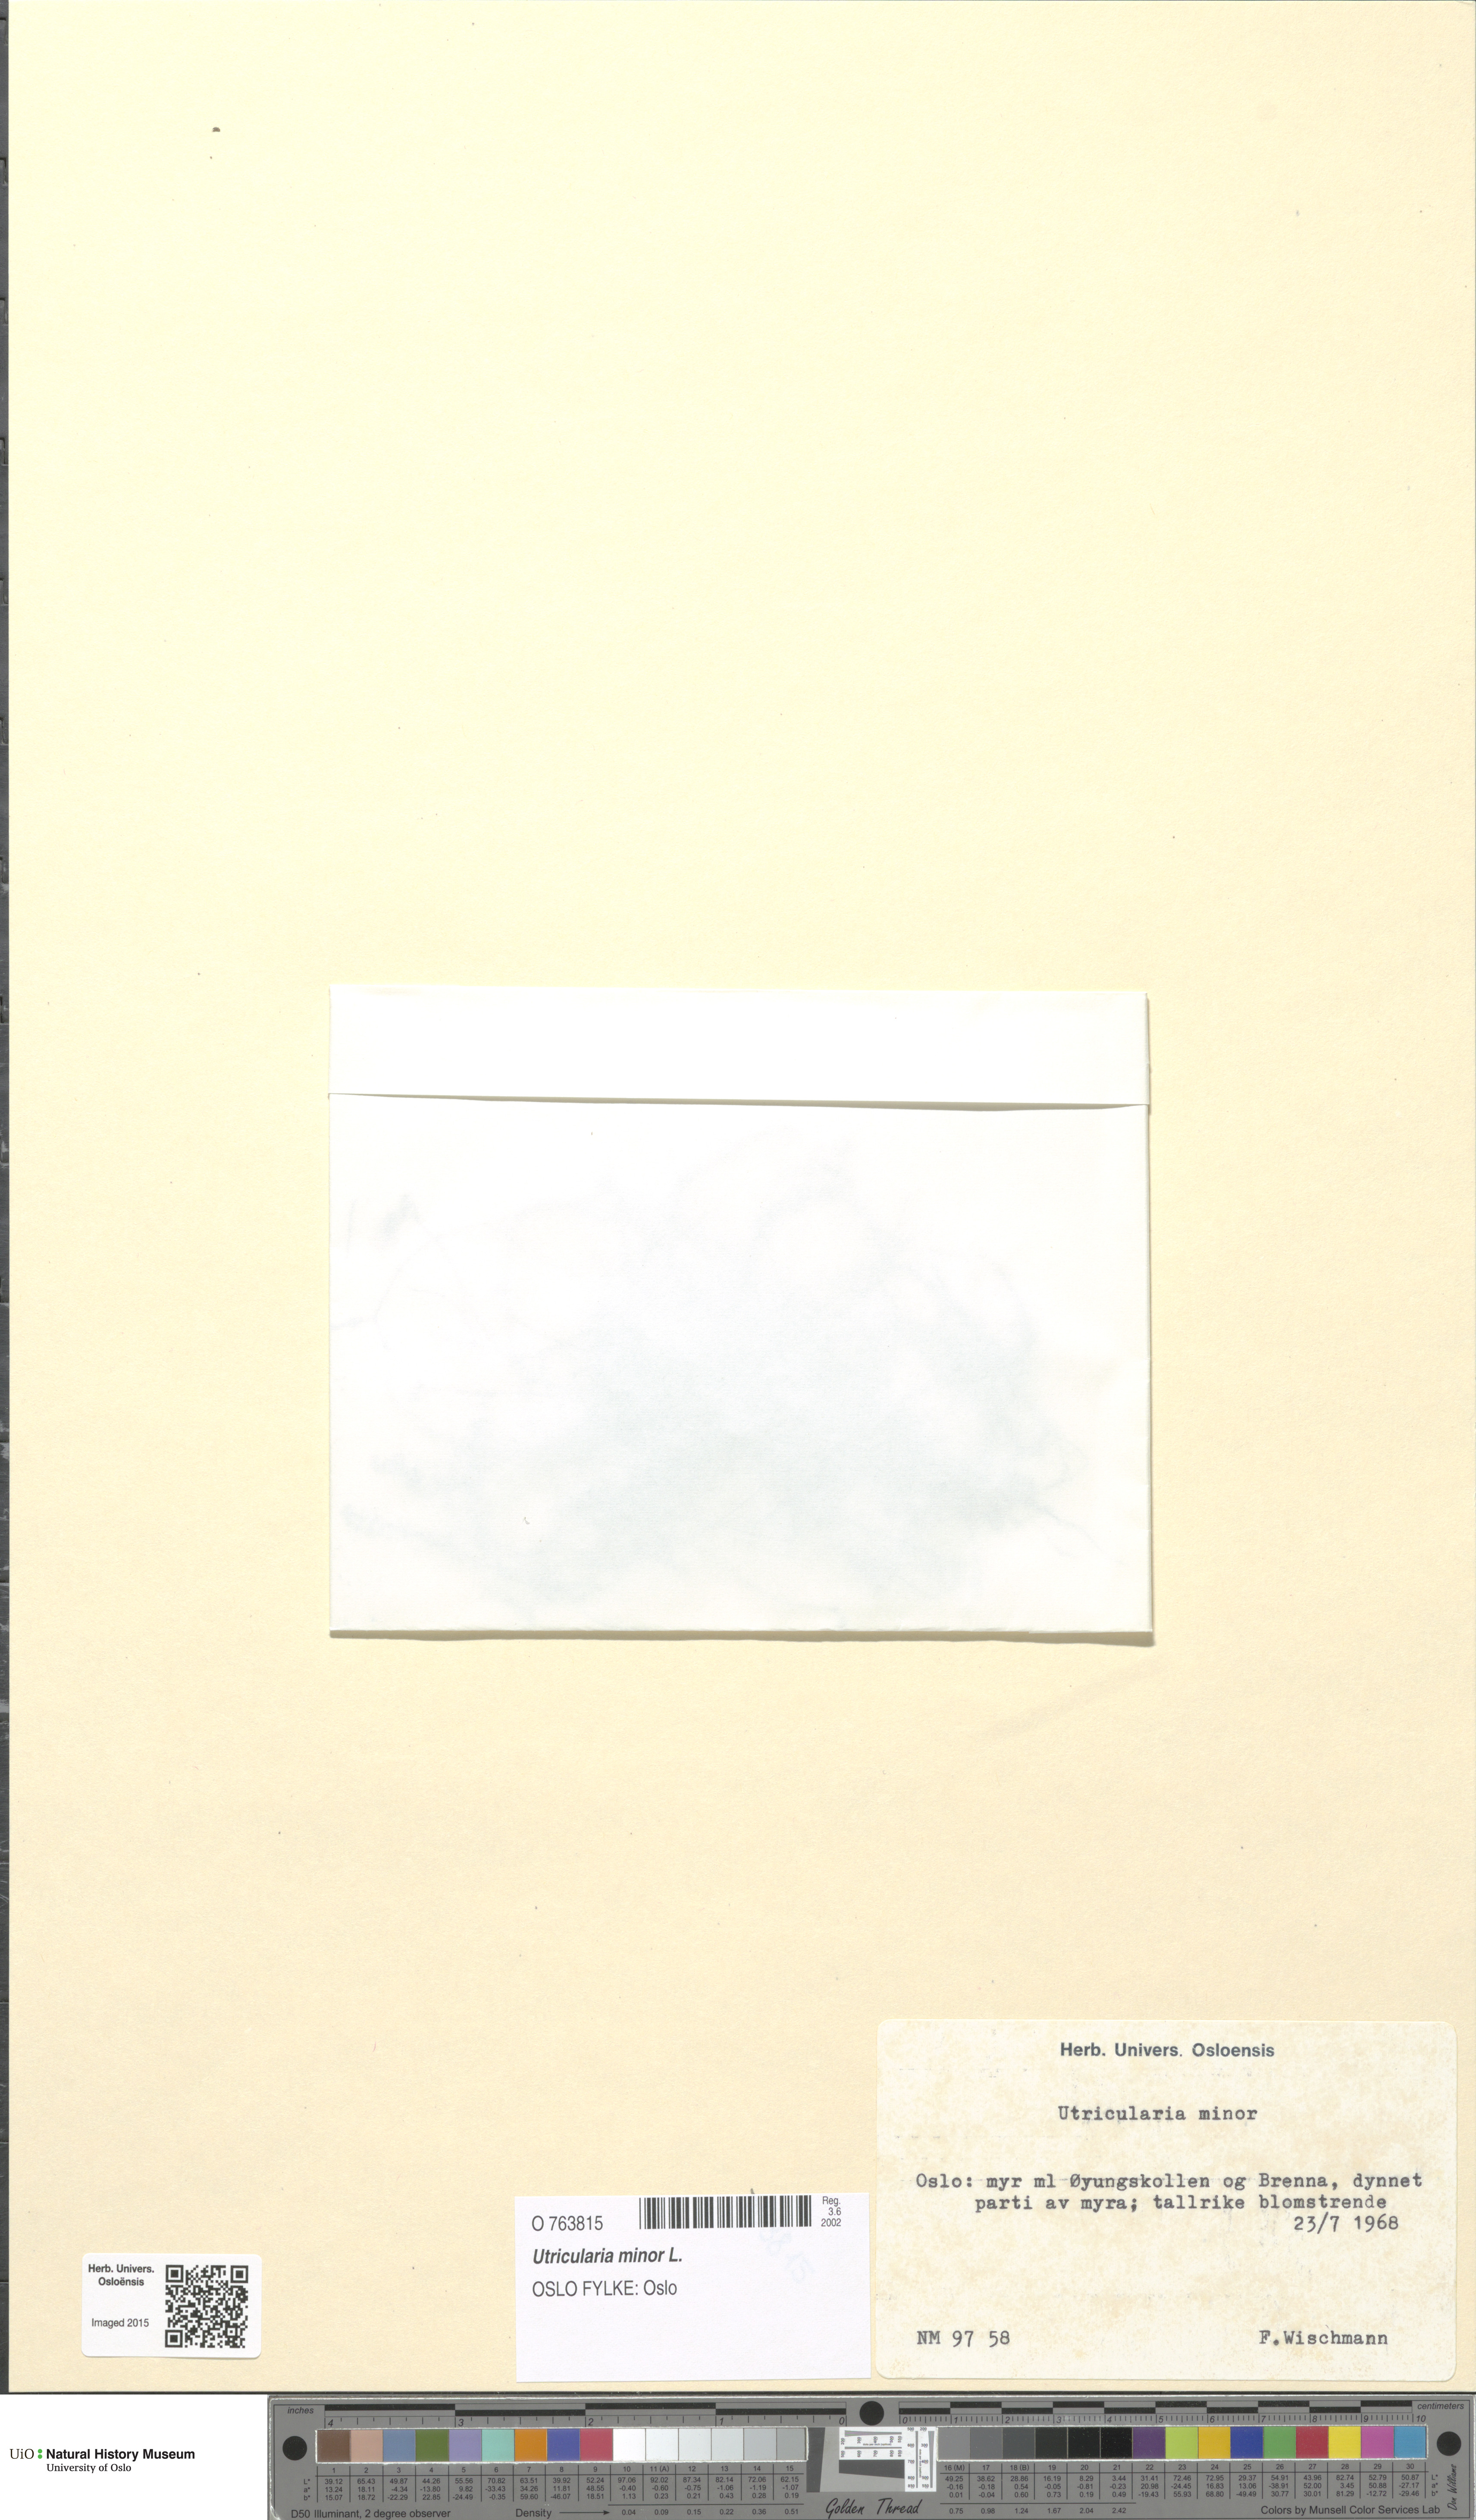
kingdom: Plantae
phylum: Tracheophyta
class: Magnoliopsida
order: Lamiales
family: Lentibulariaceae
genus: Utricularia
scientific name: Utricularia minor
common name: Lesser bladderwort
